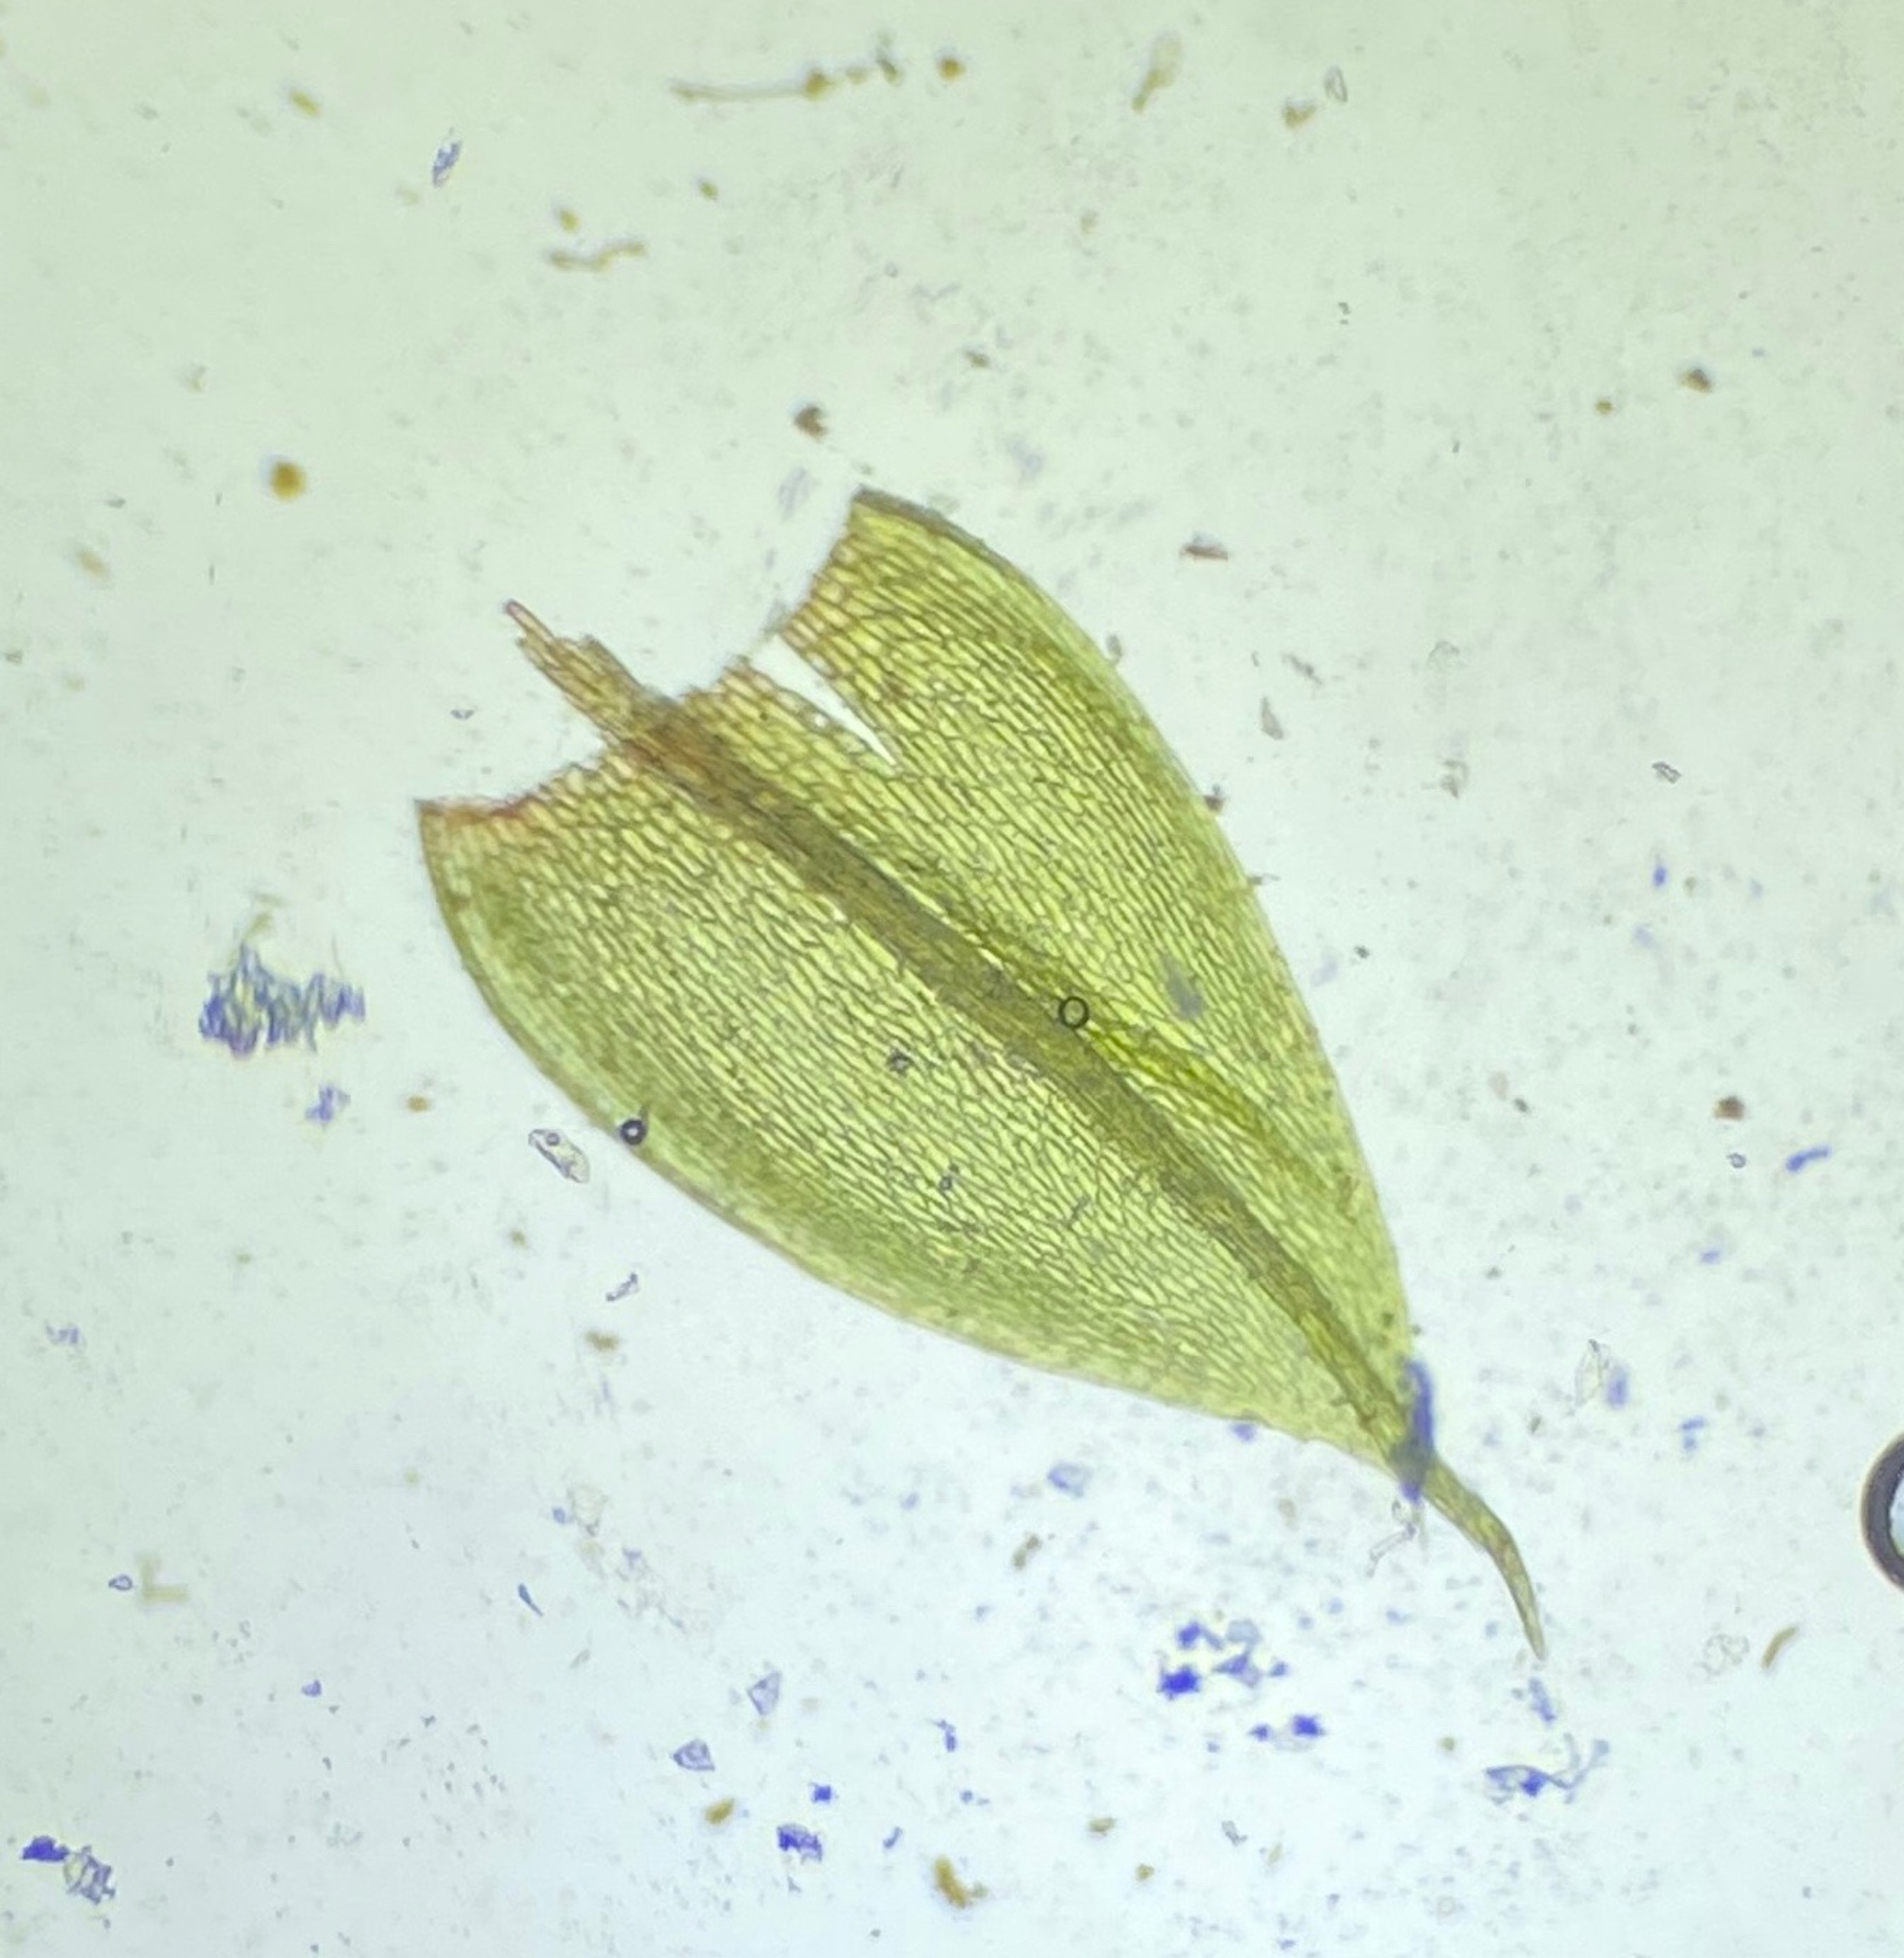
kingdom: Plantae
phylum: Bryophyta
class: Bryopsida
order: Bryales
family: Bryaceae
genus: Gemmabryum
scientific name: Gemmabryum gemmiferum
